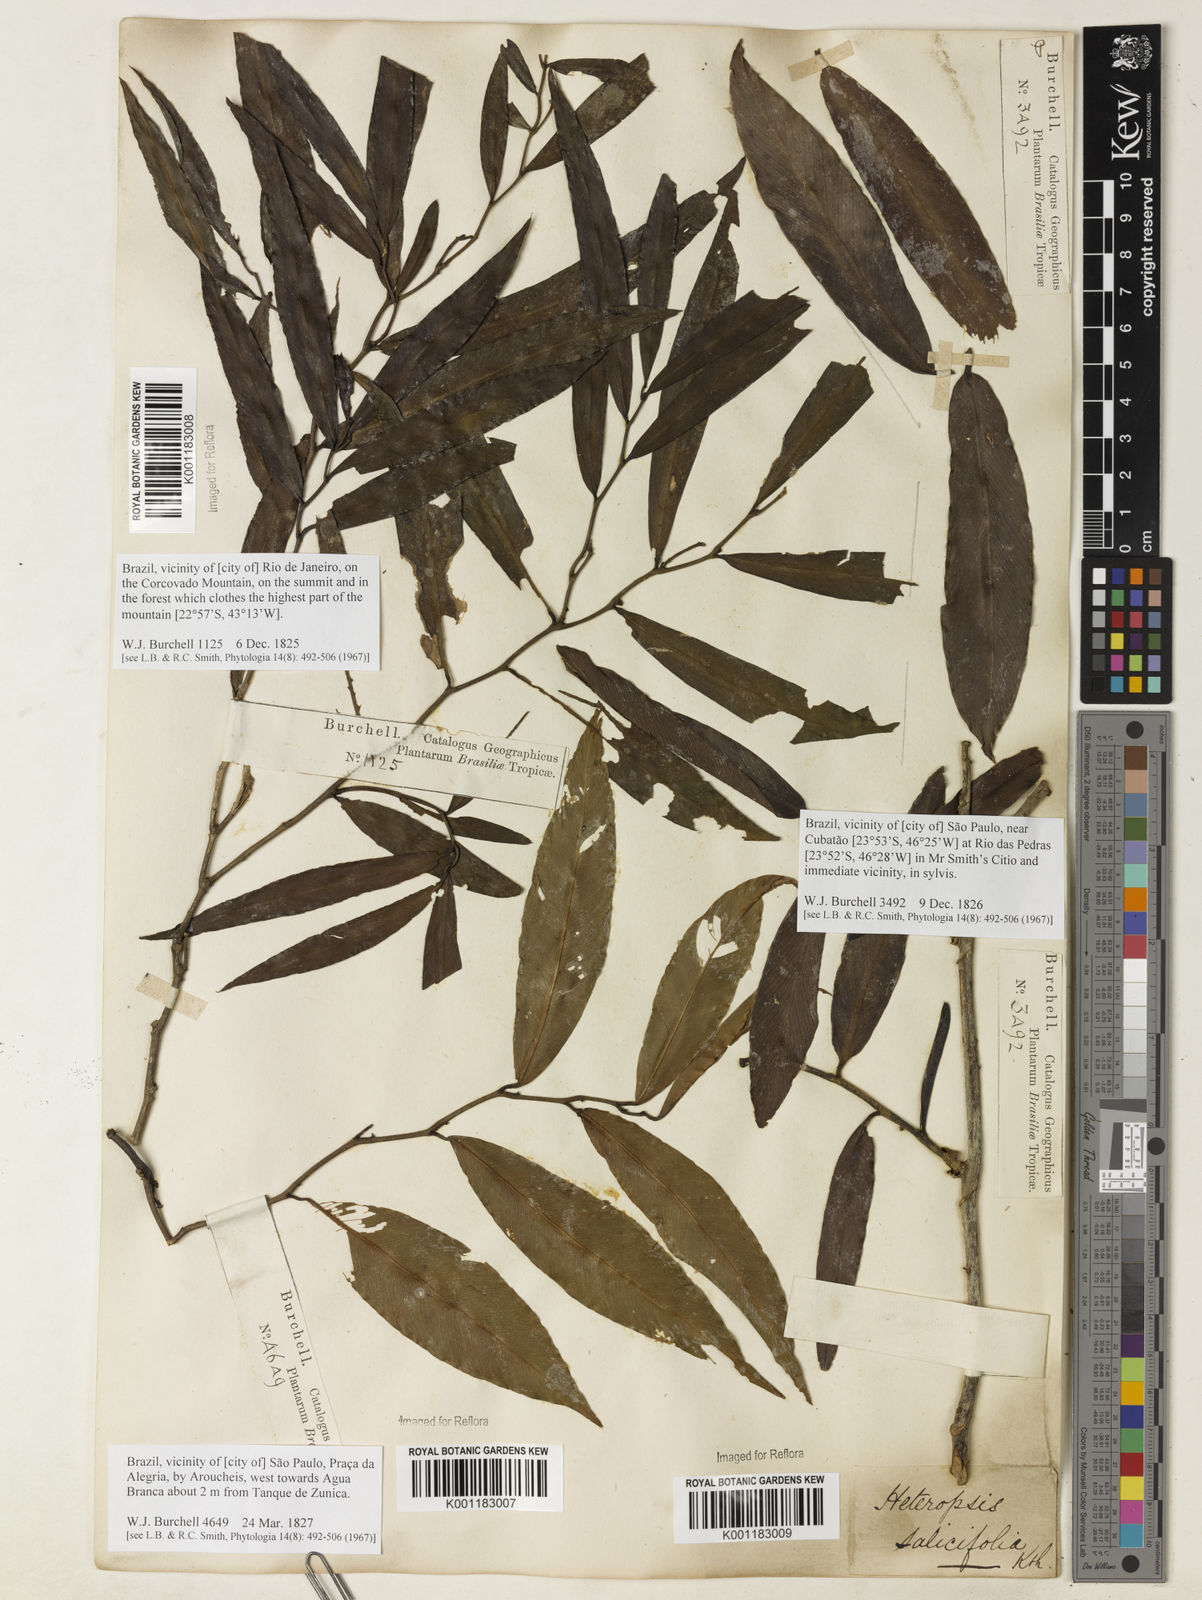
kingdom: Plantae
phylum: Tracheophyta
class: Liliopsida
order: Alismatales
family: Araceae
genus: Heteropsis
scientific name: Heteropsis salicifolia
